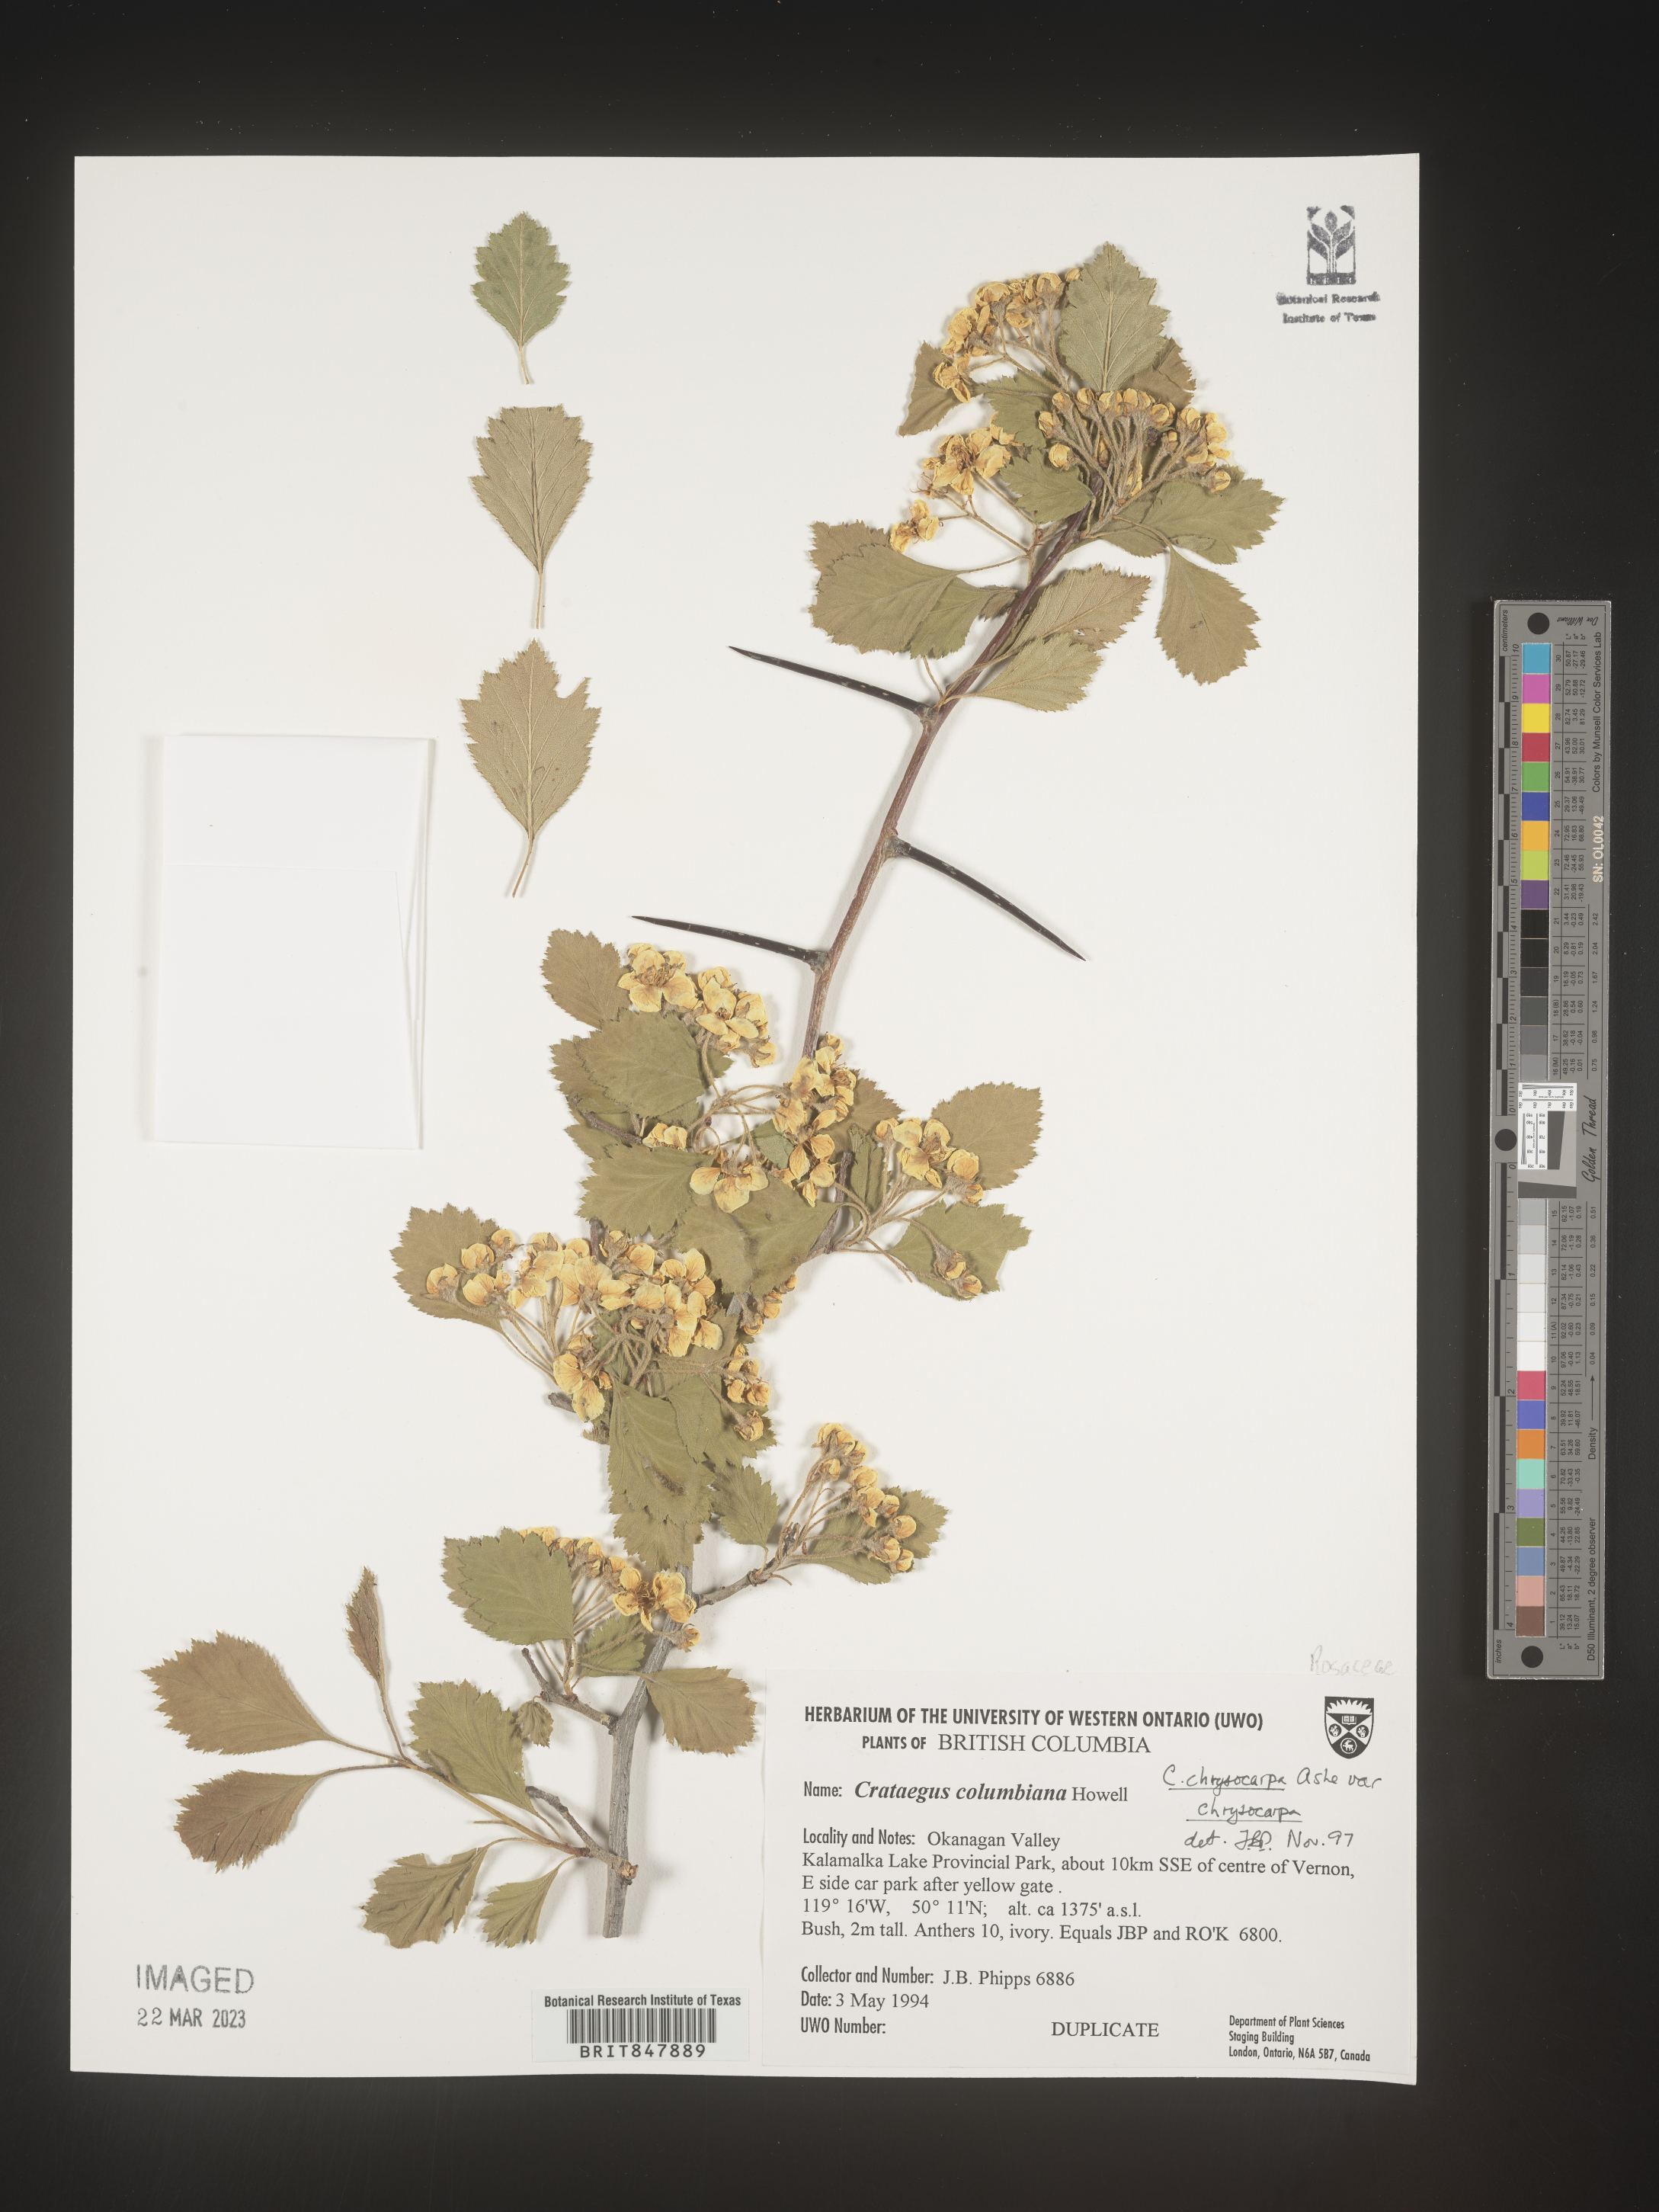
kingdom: Plantae
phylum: Tracheophyta
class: Magnoliopsida
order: Rosales
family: Rosaceae
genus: Crataegus
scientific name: Crataegus chrysocarpa
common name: Fire-berry hawthorn
